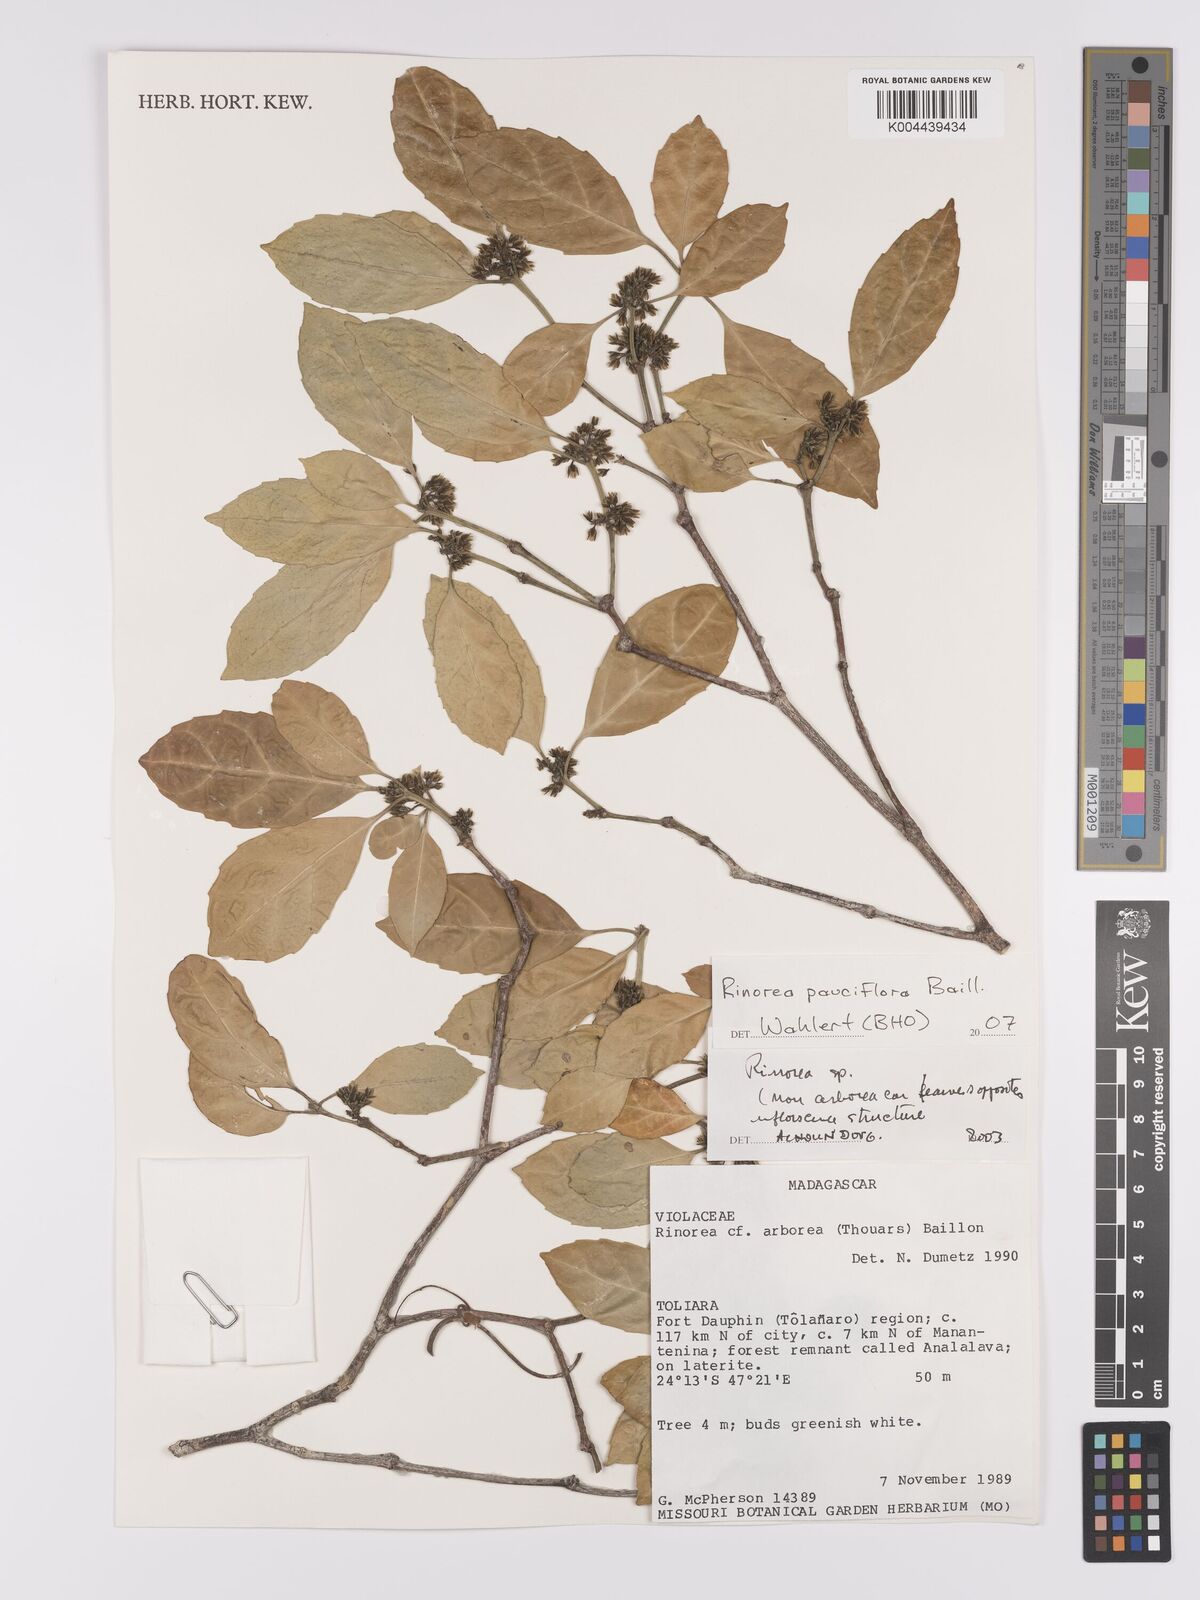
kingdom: Plantae
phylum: Tracheophyta
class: Magnoliopsida
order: Malpighiales
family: Violaceae
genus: Rinorea
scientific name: Rinorea pauciflora
